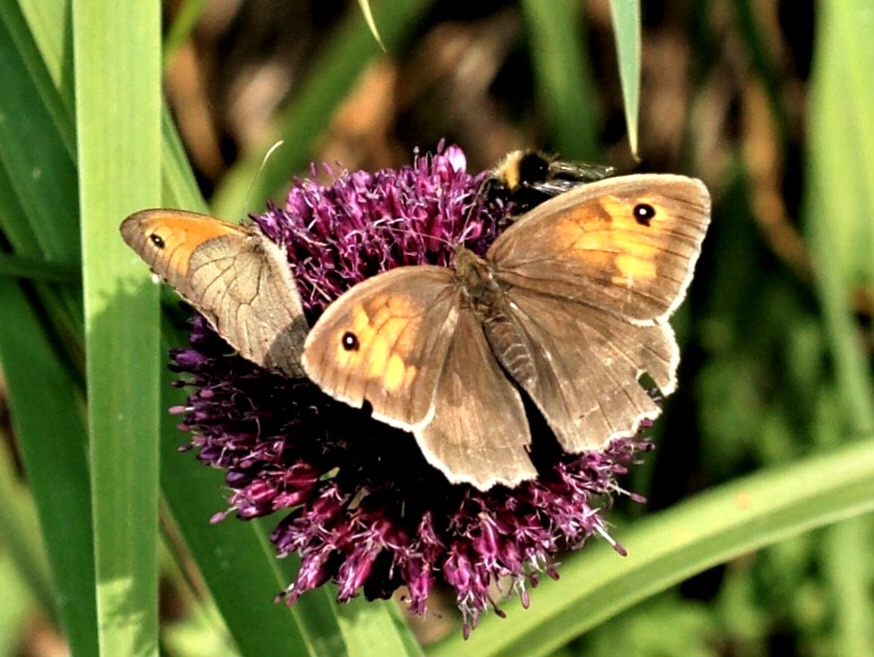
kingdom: Animalia
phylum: Arthropoda
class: Insecta
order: Lepidoptera
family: Nymphalidae
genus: Maniola
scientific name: Maniola jurtina
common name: Græsrandøje
